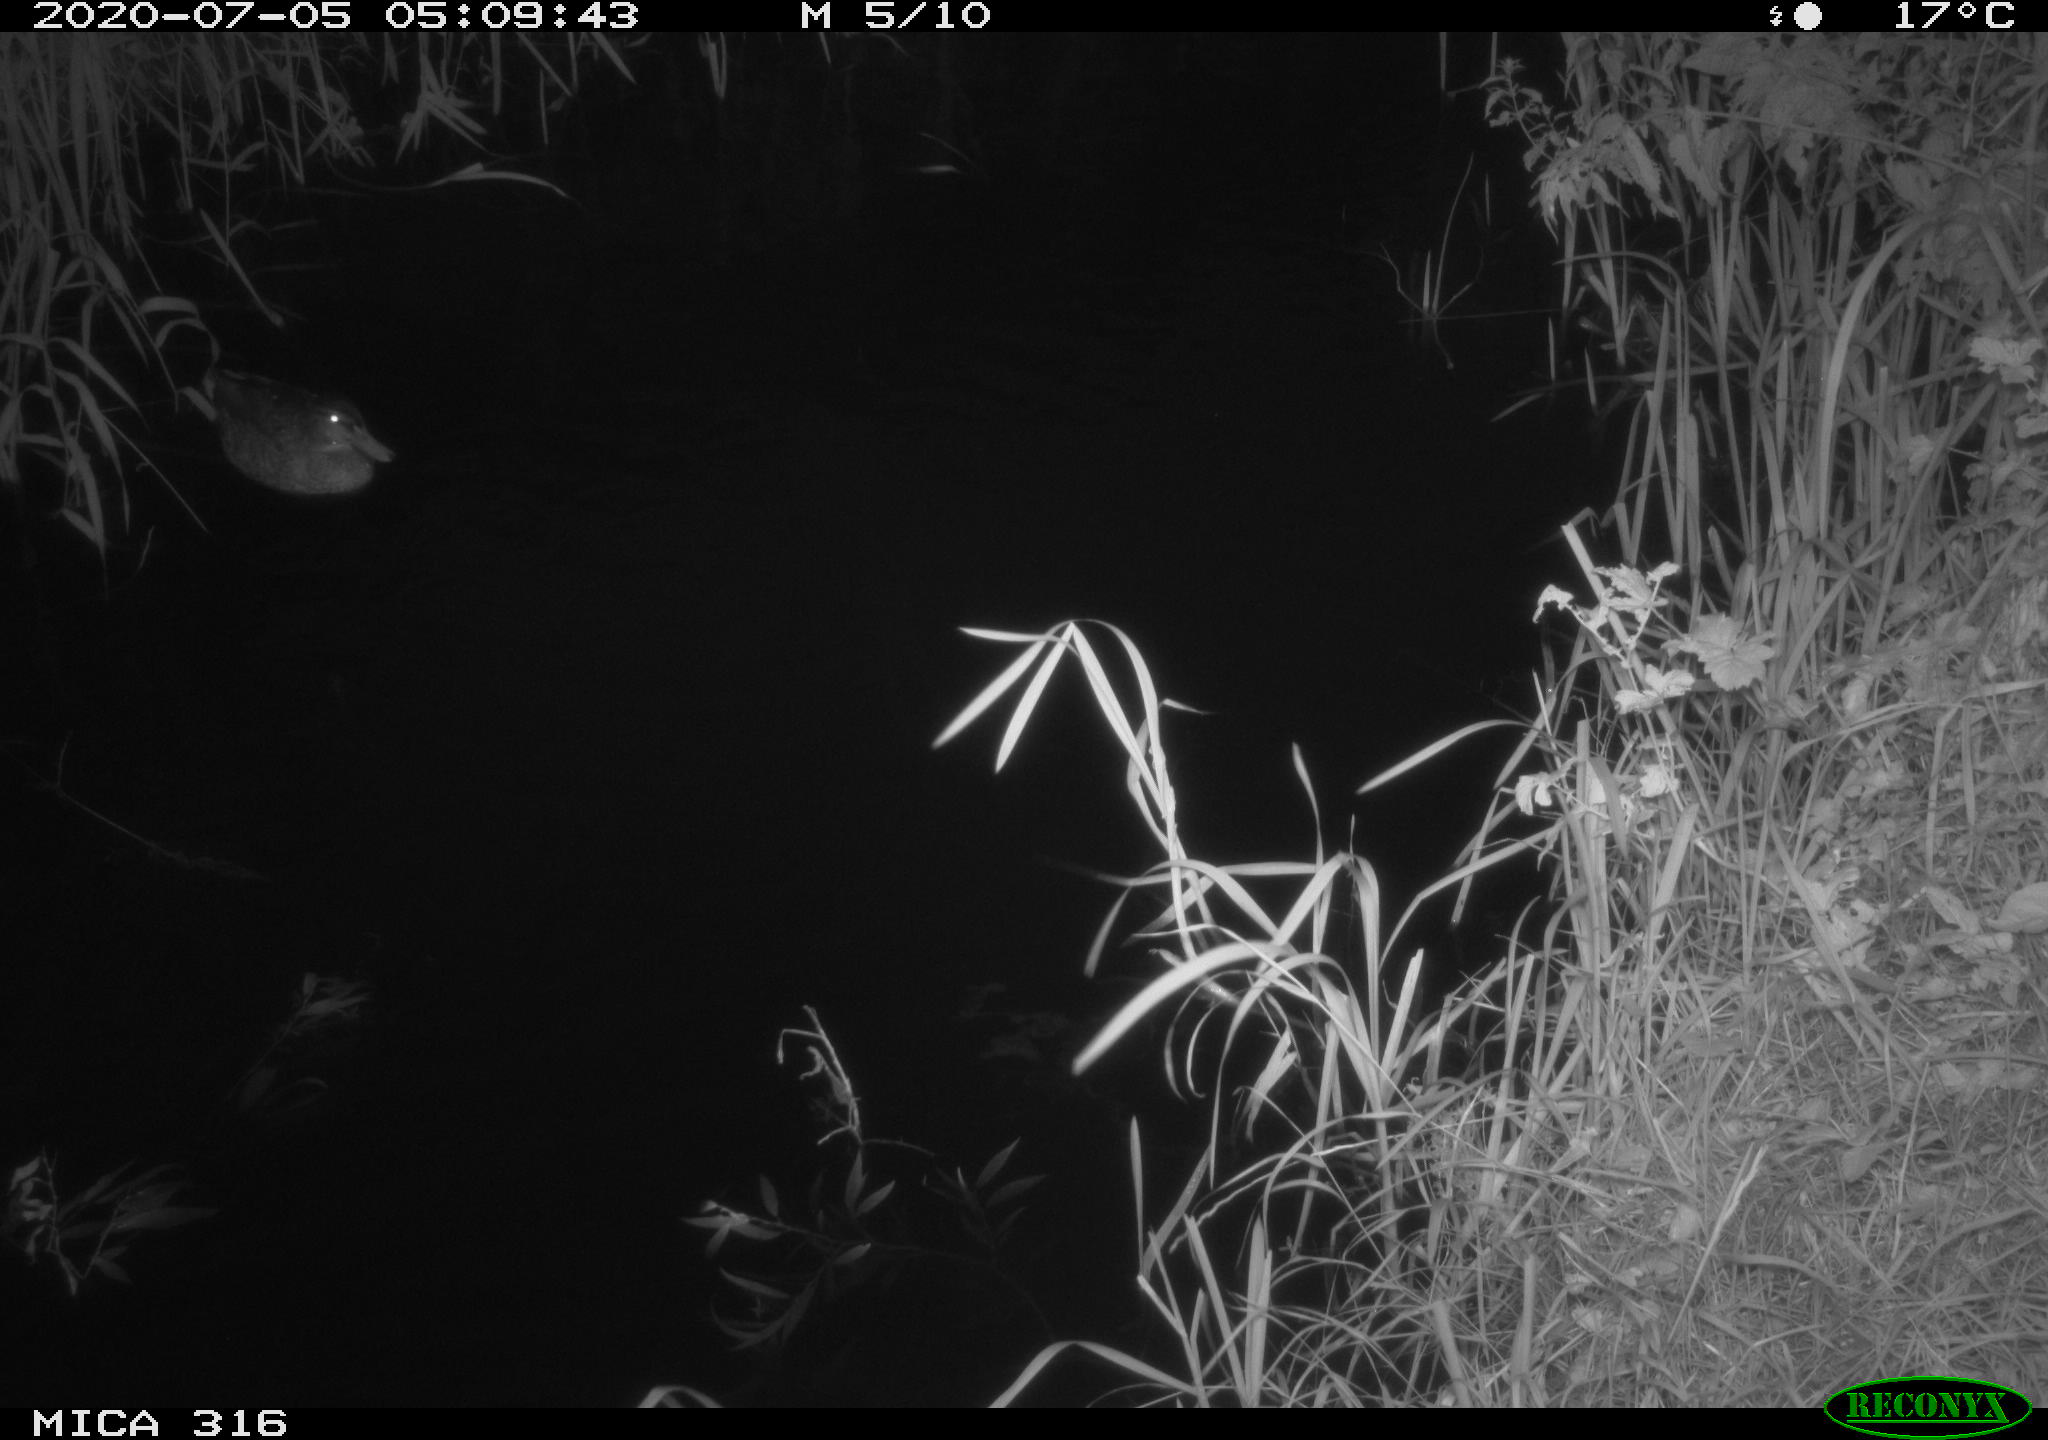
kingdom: Animalia
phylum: Chordata
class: Aves
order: Anseriformes
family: Anatidae
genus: Anas
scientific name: Anas platyrhynchos
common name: Mallard
